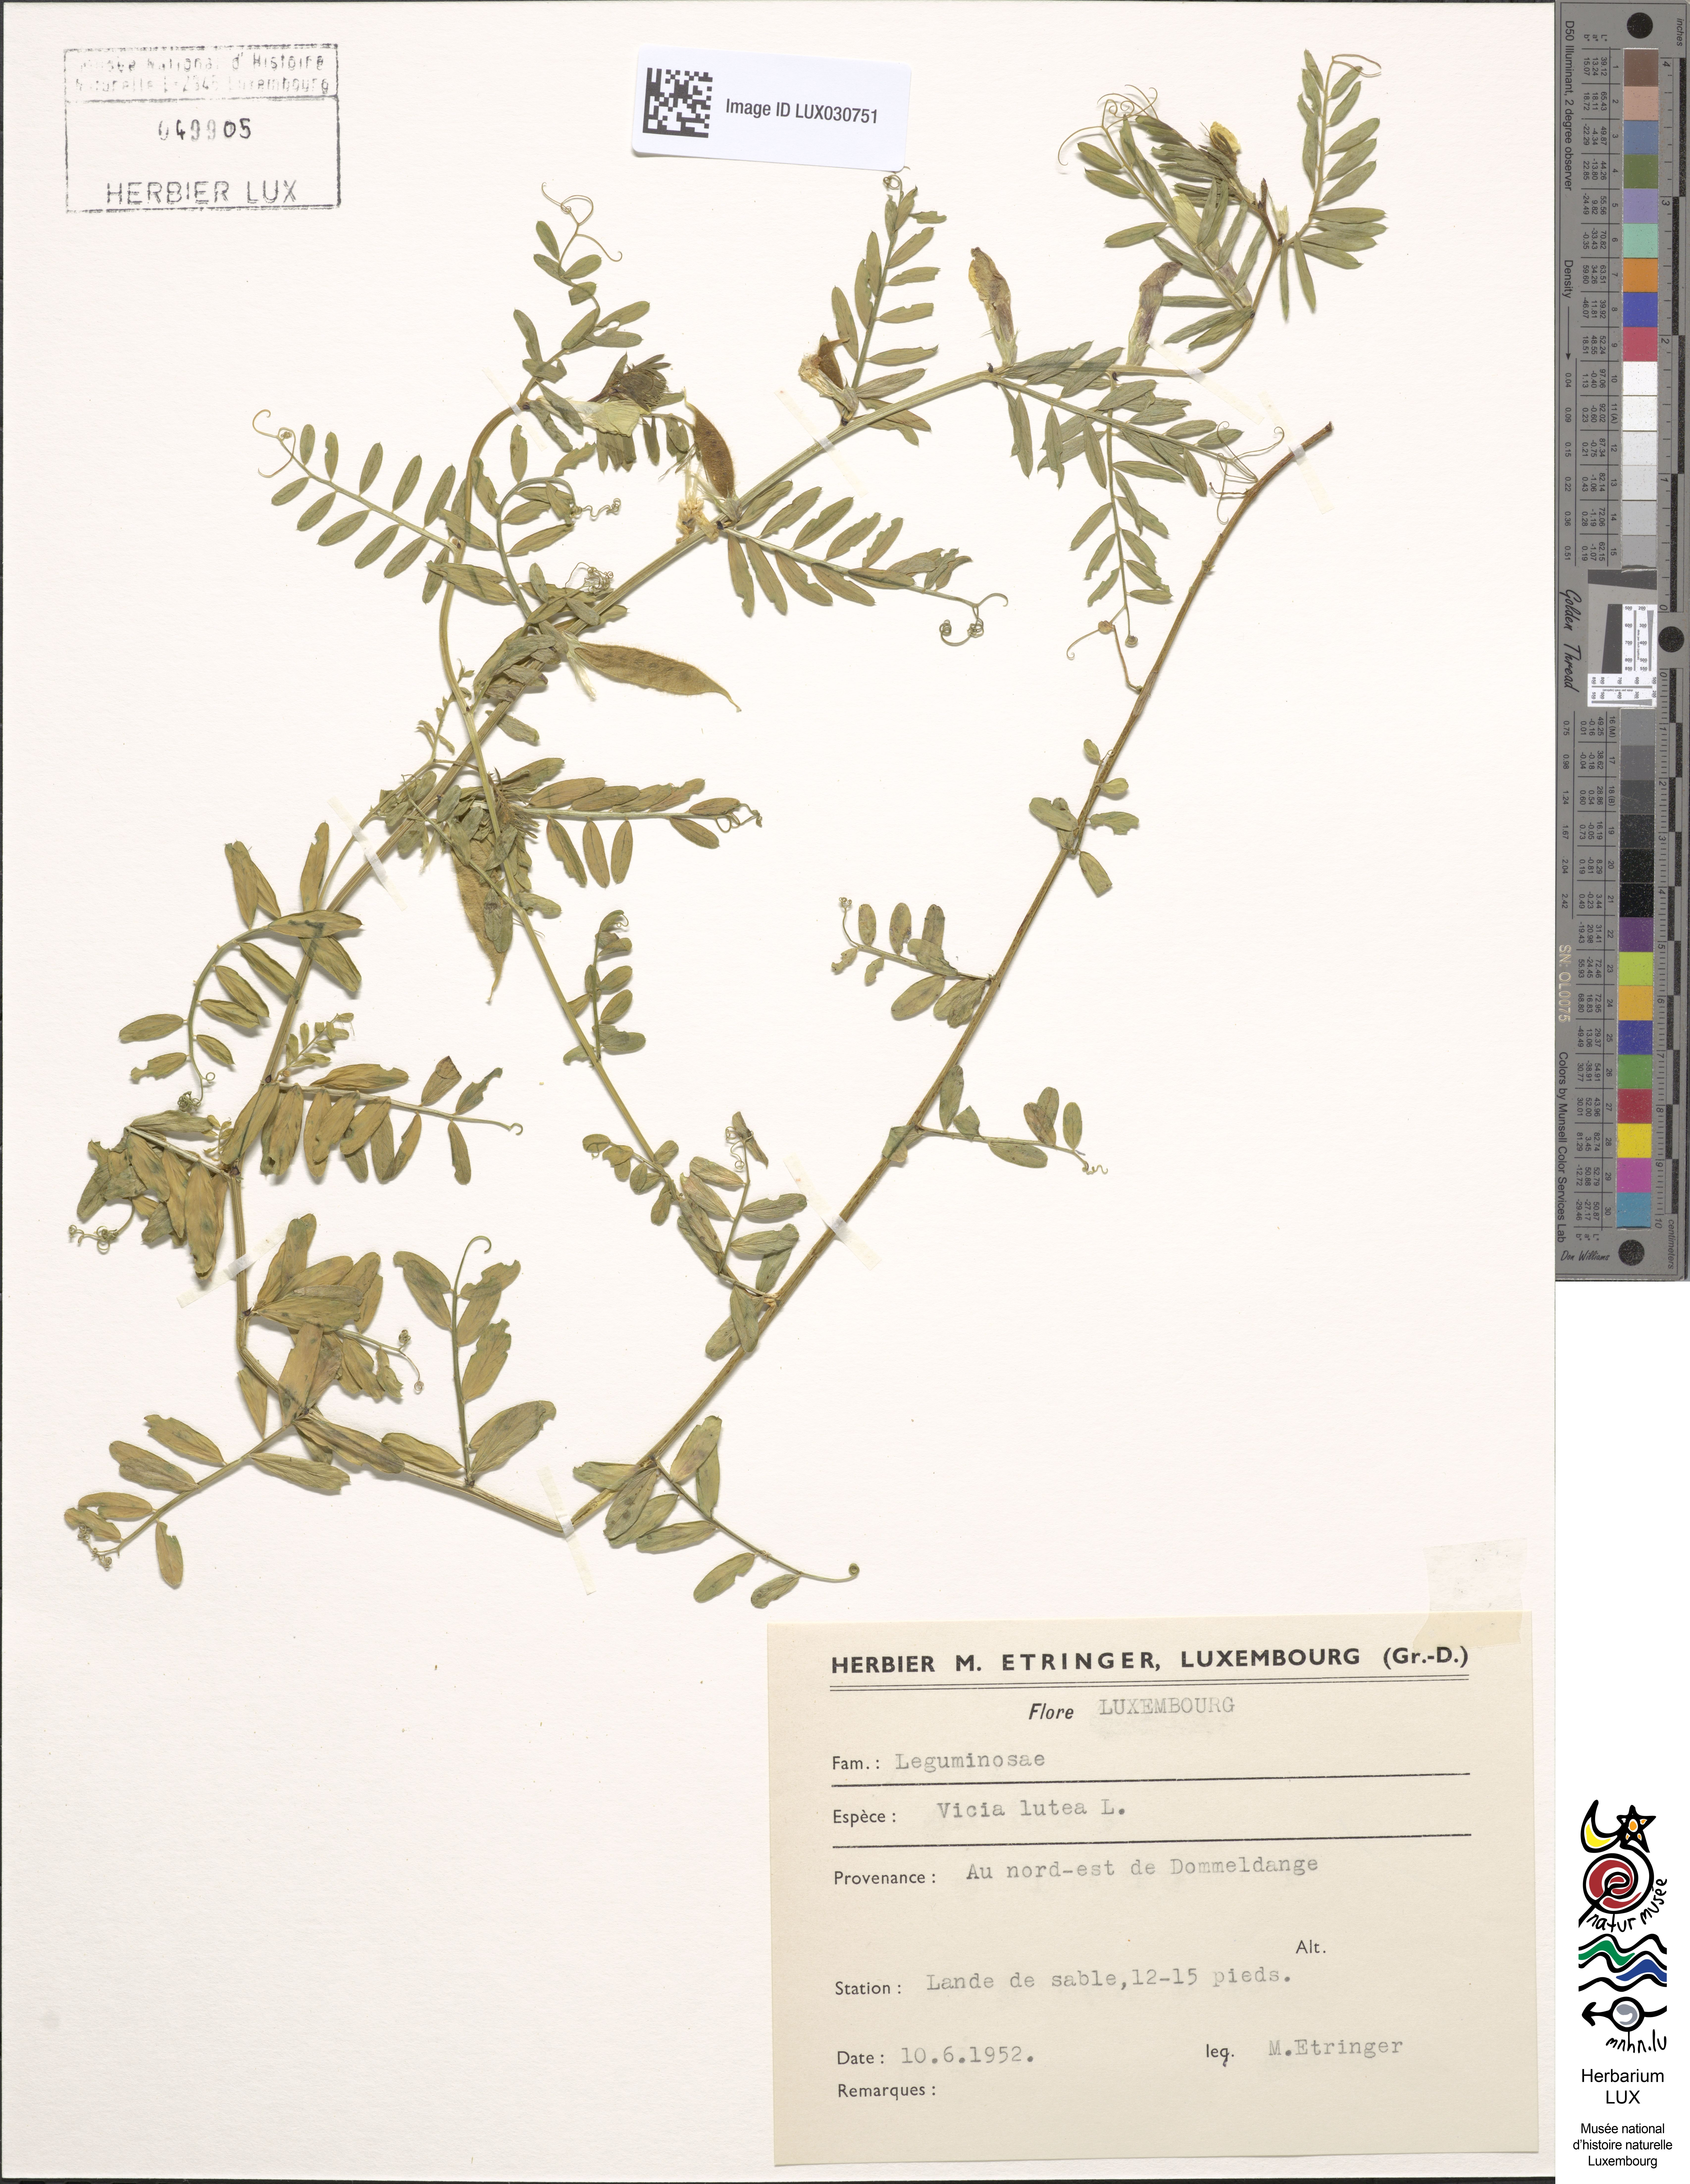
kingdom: Plantae
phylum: Tracheophyta
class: Magnoliopsida
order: Fabales
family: Fabaceae
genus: Vicia
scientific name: Vicia lutea
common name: Smooth yellow vetch
